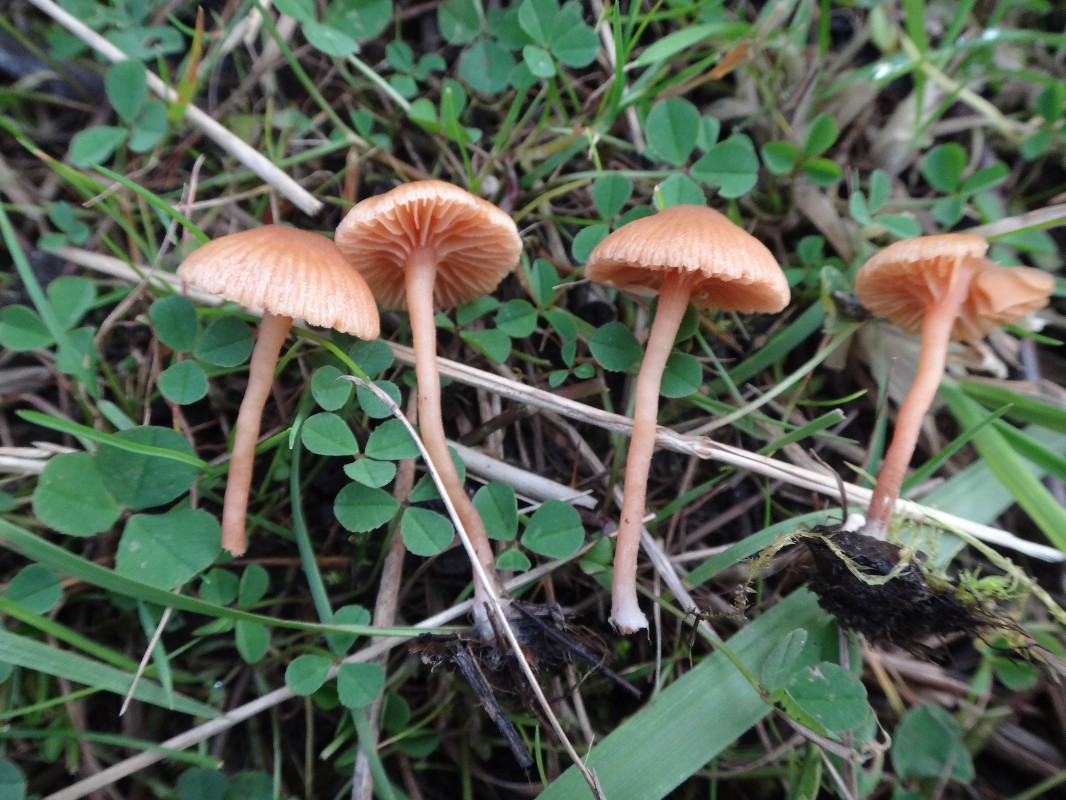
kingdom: Fungi
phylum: Basidiomycota
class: Agaricomycetes
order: Agaricales
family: Tubariaceae
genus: Tubaria
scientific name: Tubaria conspersa
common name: bleg fnughat
